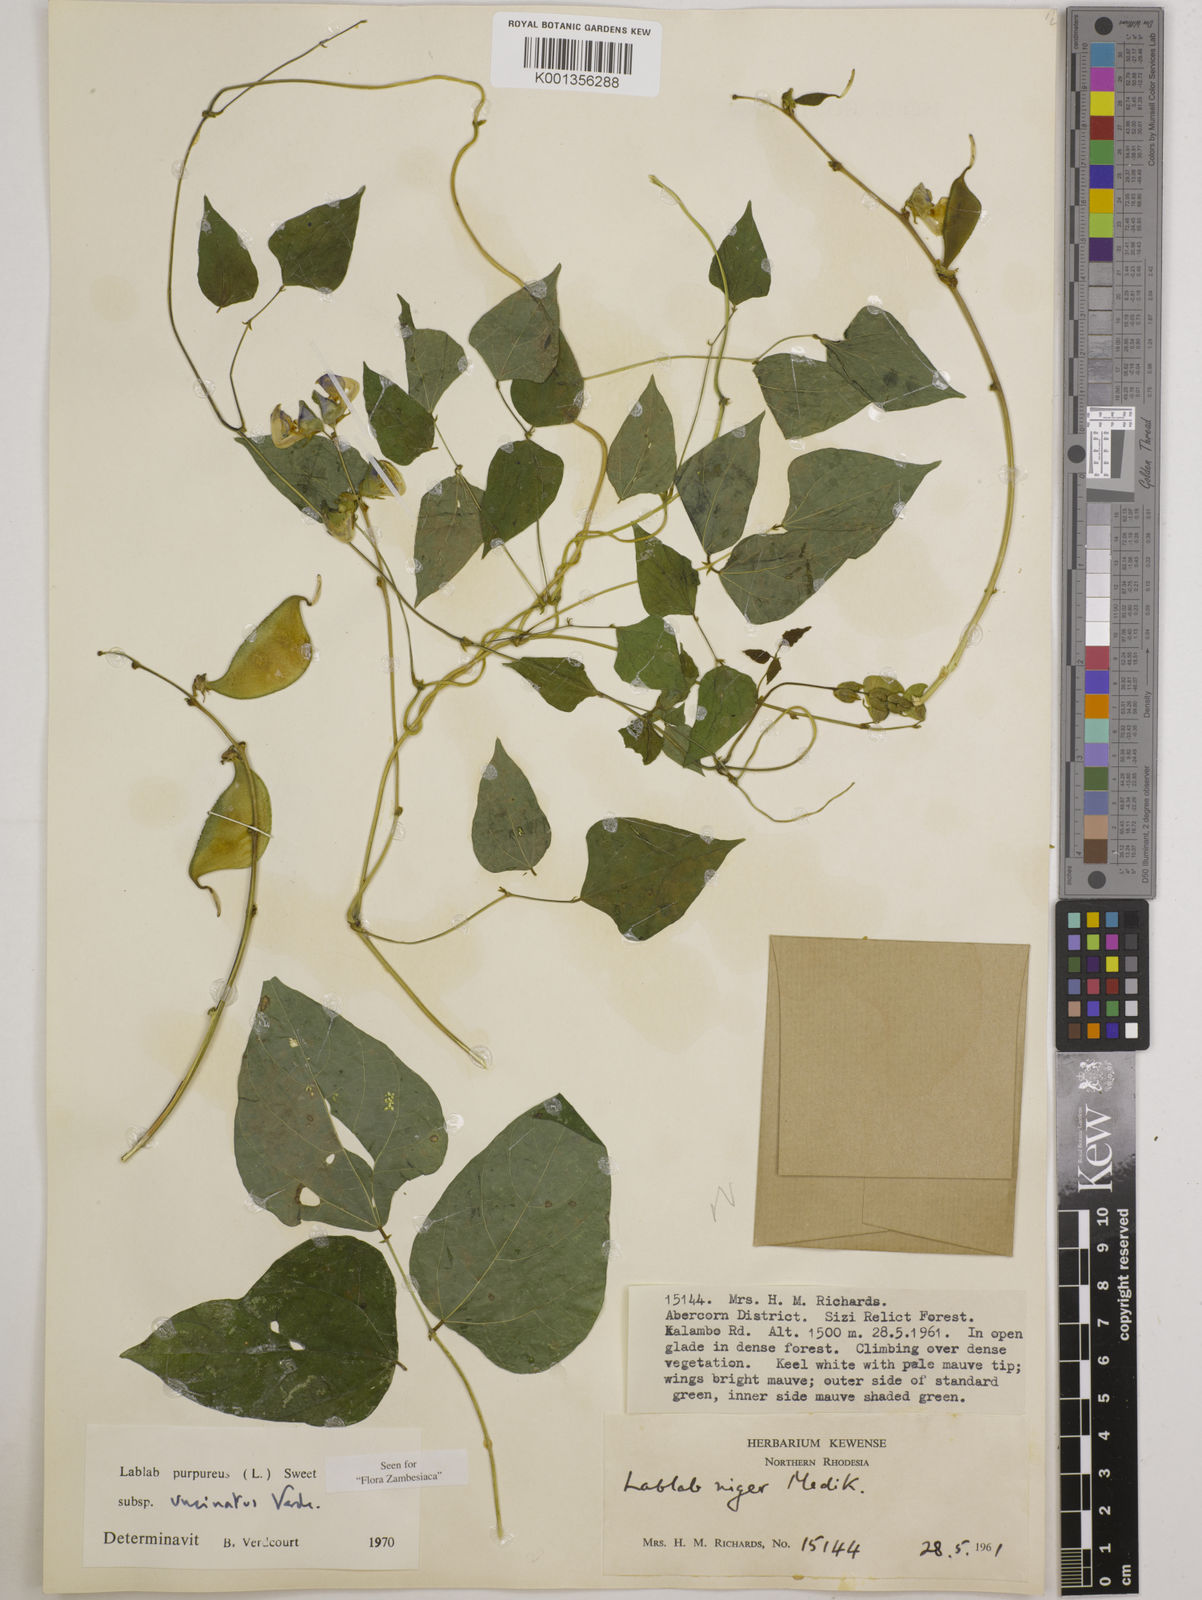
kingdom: Plantae
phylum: Tracheophyta
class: Magnoliopsida
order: Fabales
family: Fabaceae
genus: Lablab
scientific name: Lablab
